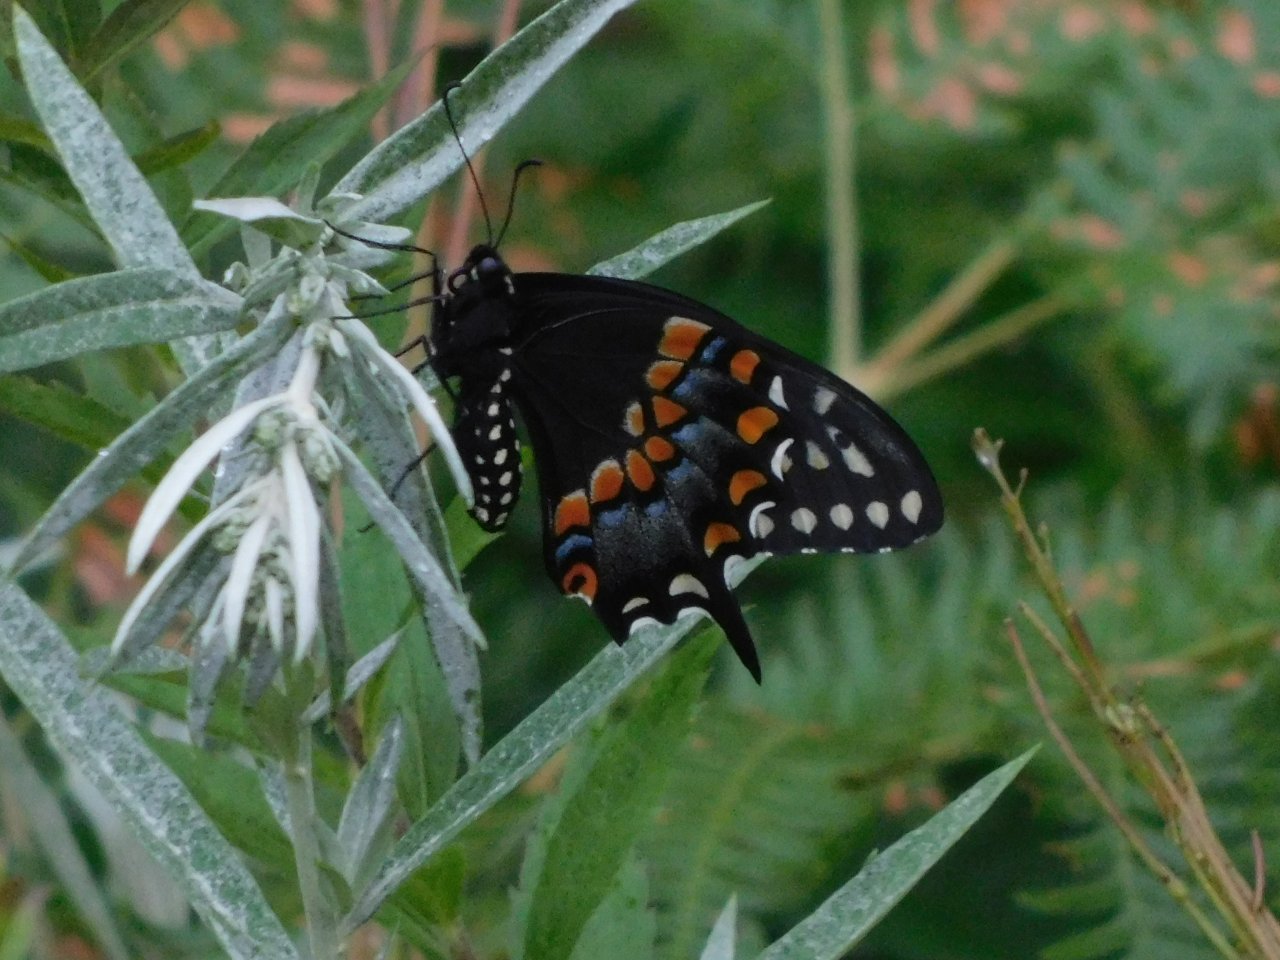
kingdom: Animalia
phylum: Arthropoda
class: Insecta
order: Lepidoptera
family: Papilionidae
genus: Papilio
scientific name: Papilio polyxenes
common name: Black Swallowtail
